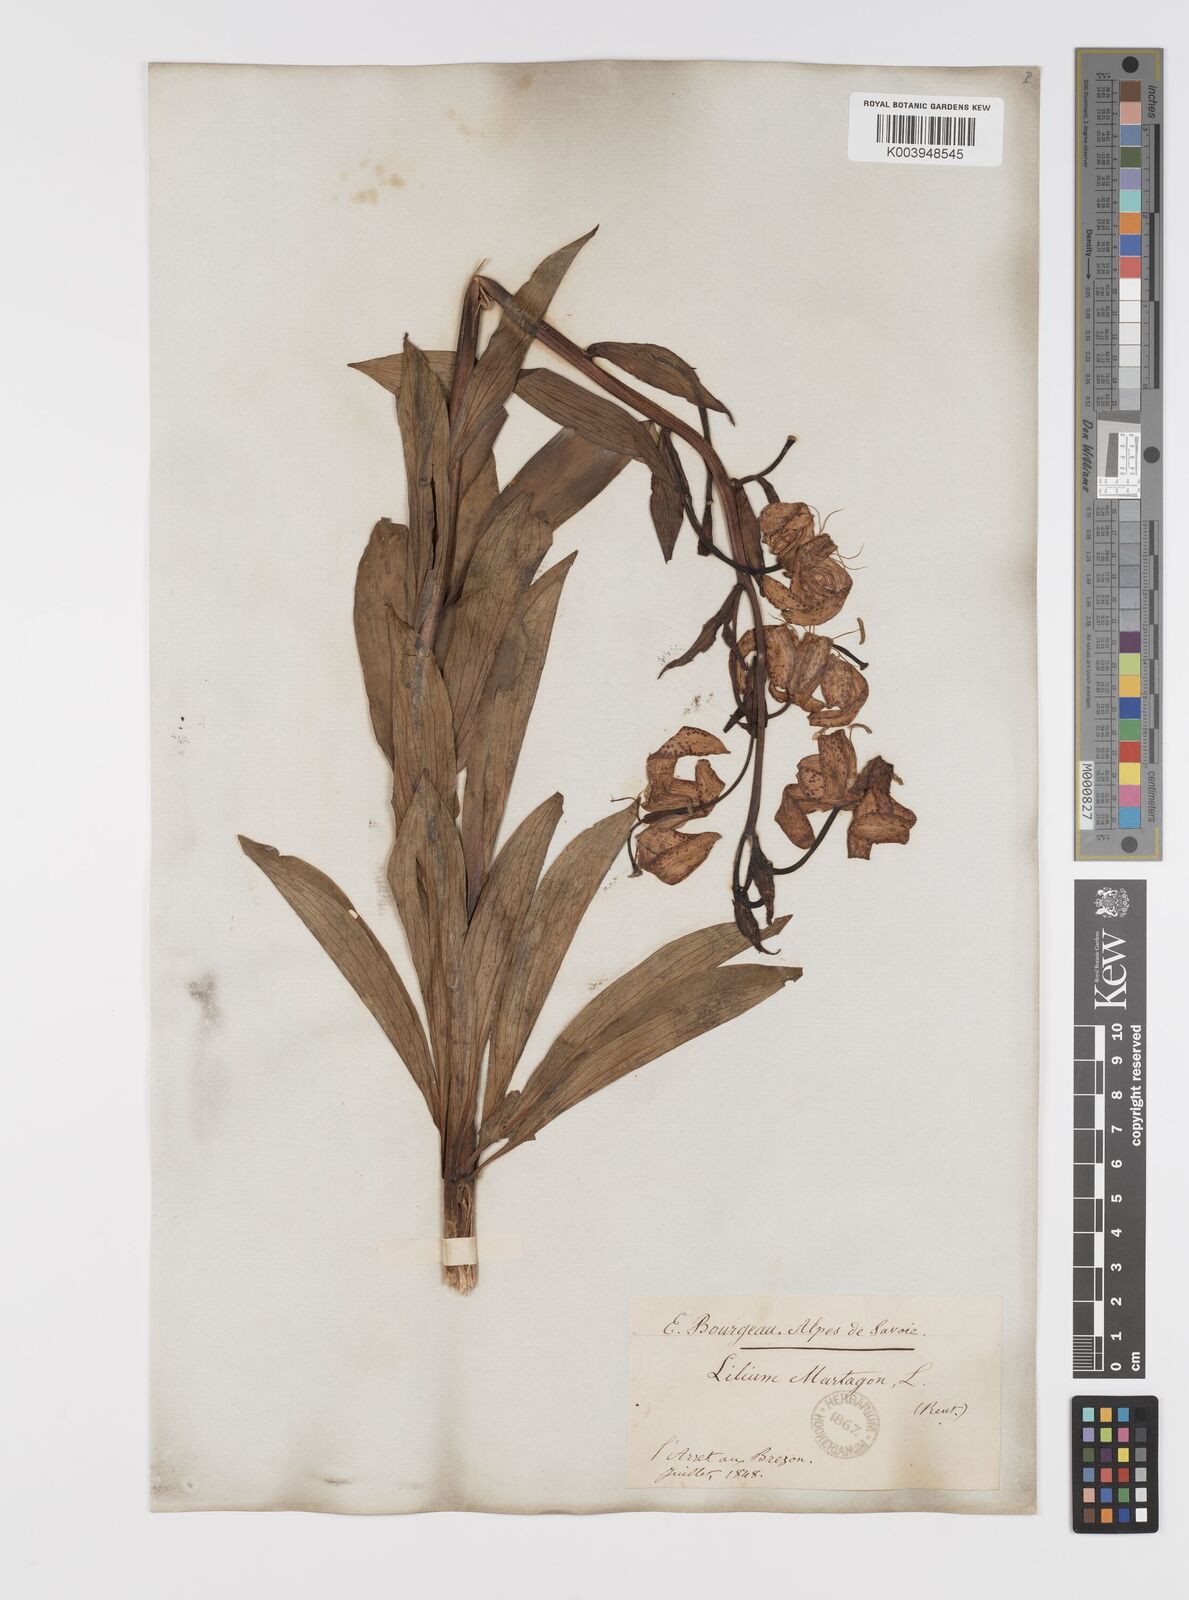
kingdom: Plantae
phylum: Tracheophyta
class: Liliopsida
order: Liliales
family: Liliaceae
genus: Lilium
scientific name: Lilium martagon
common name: Martagon lily
